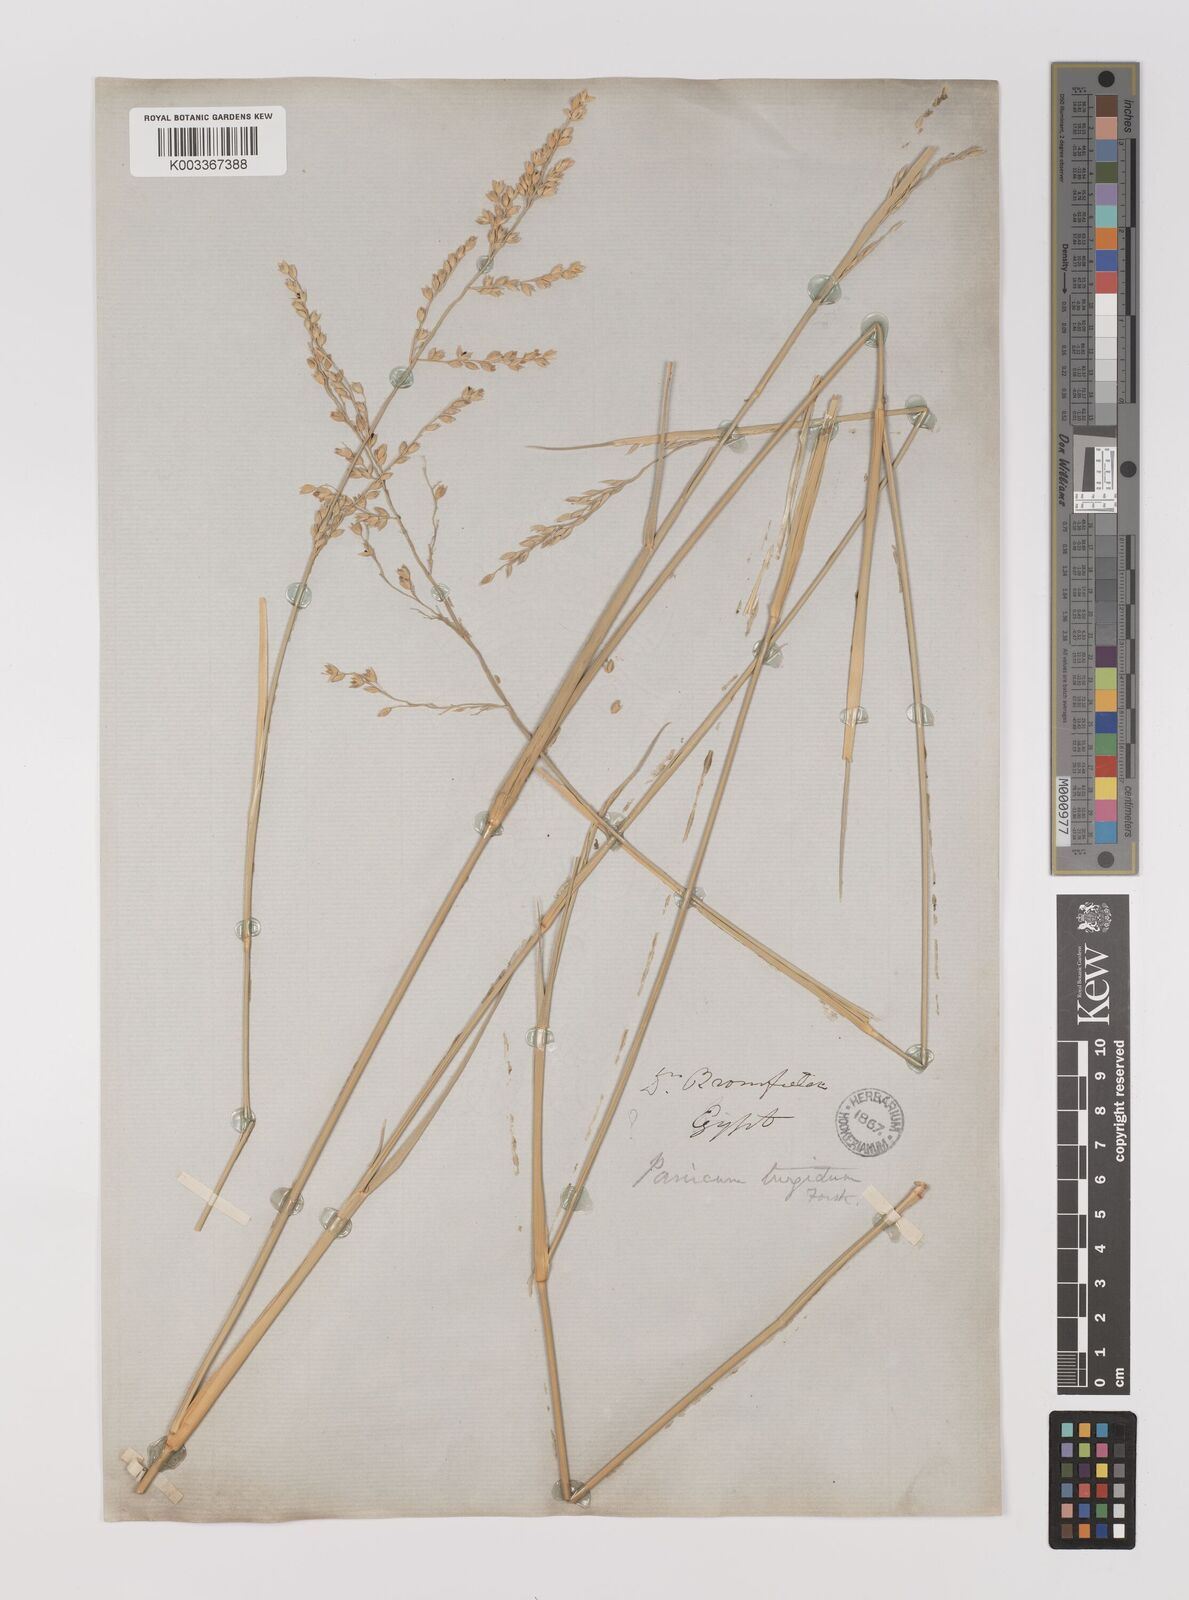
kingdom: Plantae
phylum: Tracheophyta
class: Liliopsida
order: Poales
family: Poaceae
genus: Panicum
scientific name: Panicum turgidum
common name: Desert grass
